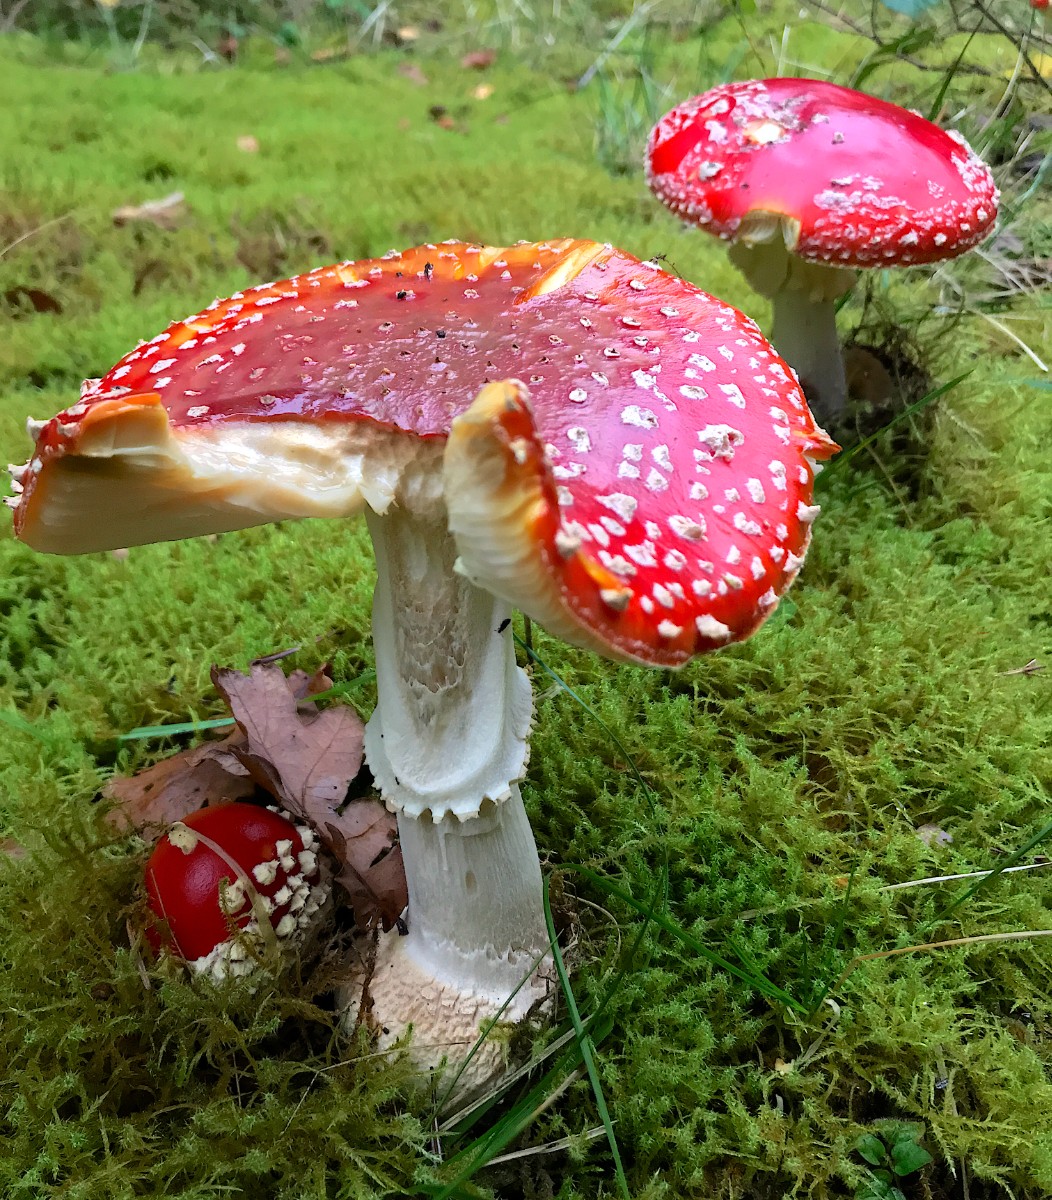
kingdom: Fungi
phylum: Basidiomycota
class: Agaricomycetes
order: Agaricales
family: Amanitaceae
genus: Amanita
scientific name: Amanita muscaria
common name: rød fluesvamp
